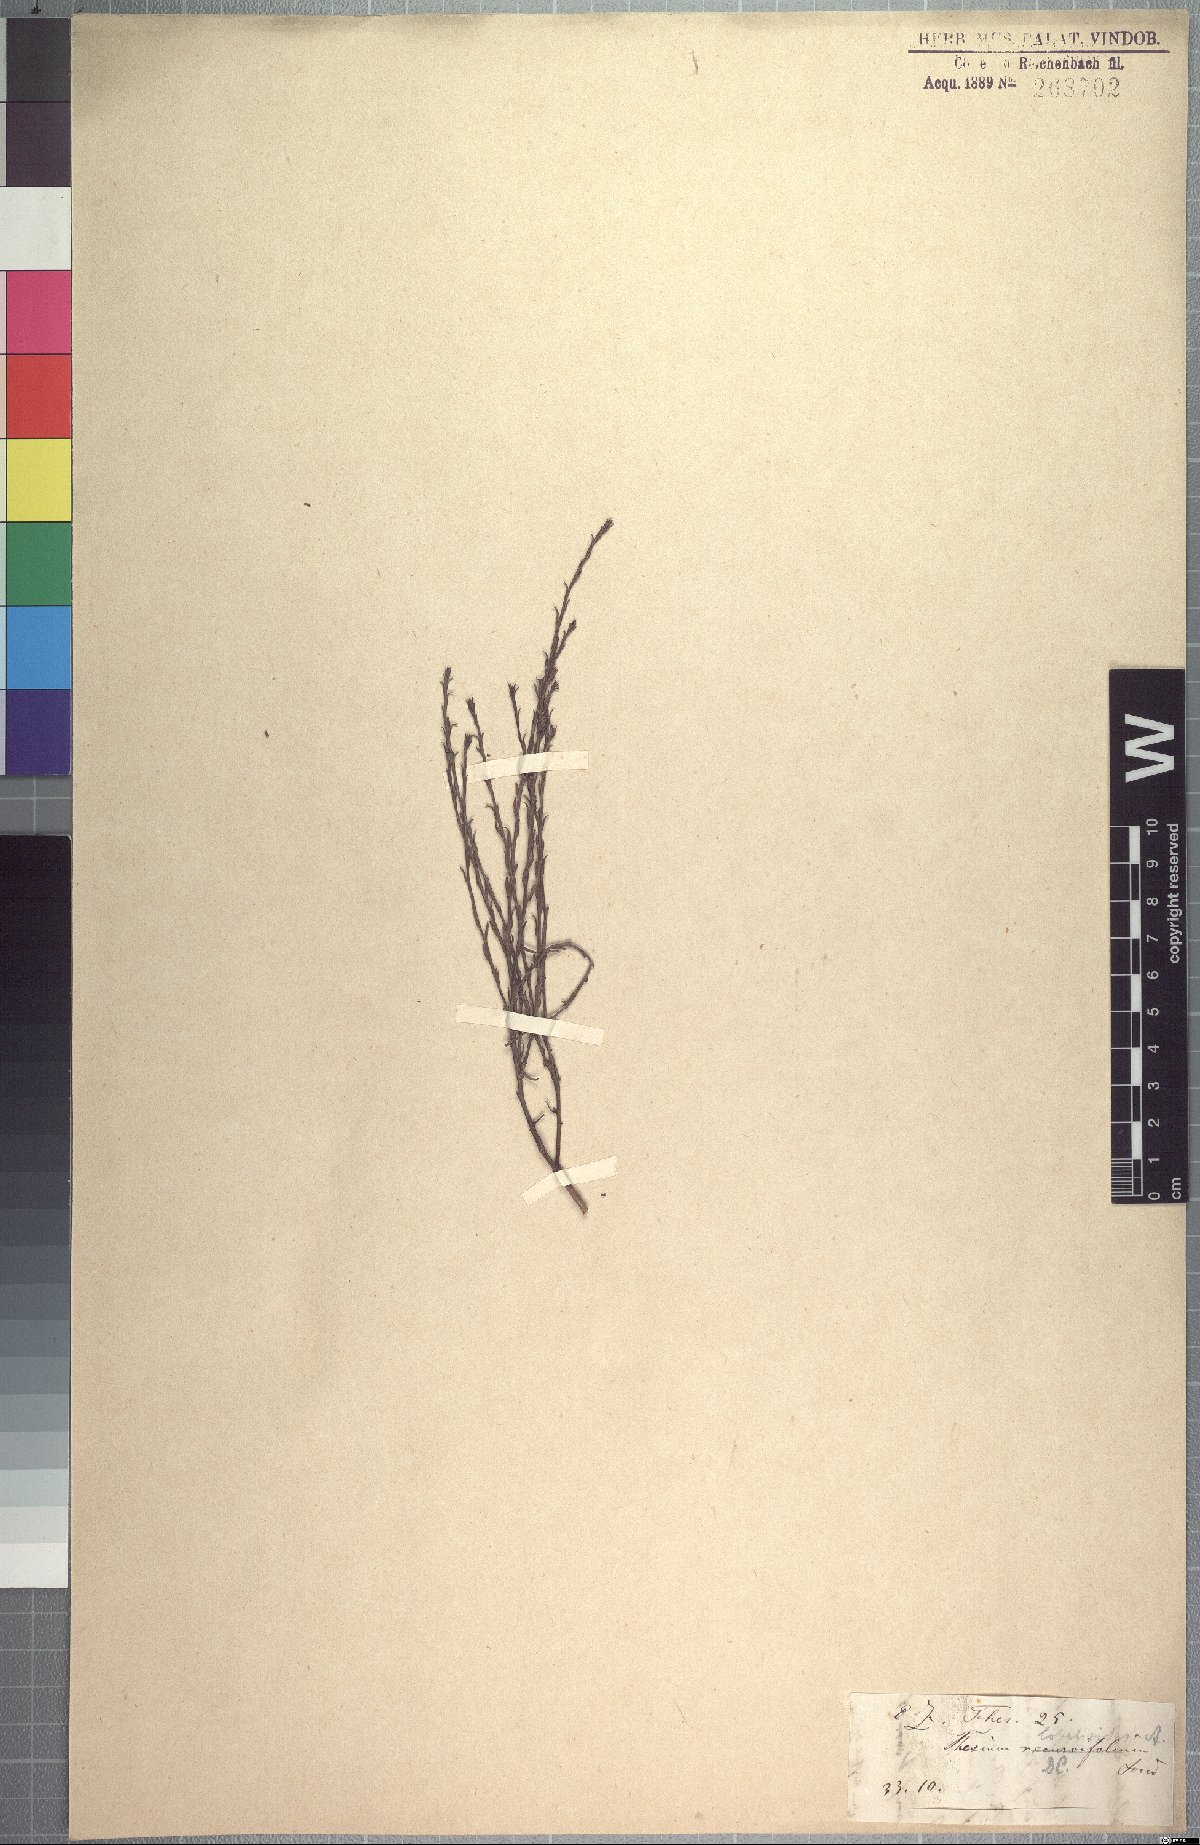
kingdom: Plantae
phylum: Tracheophyta
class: Magnoliopsida
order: Santalales
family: Thesiaceae
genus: Thesium
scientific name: Thesium lobelioides
